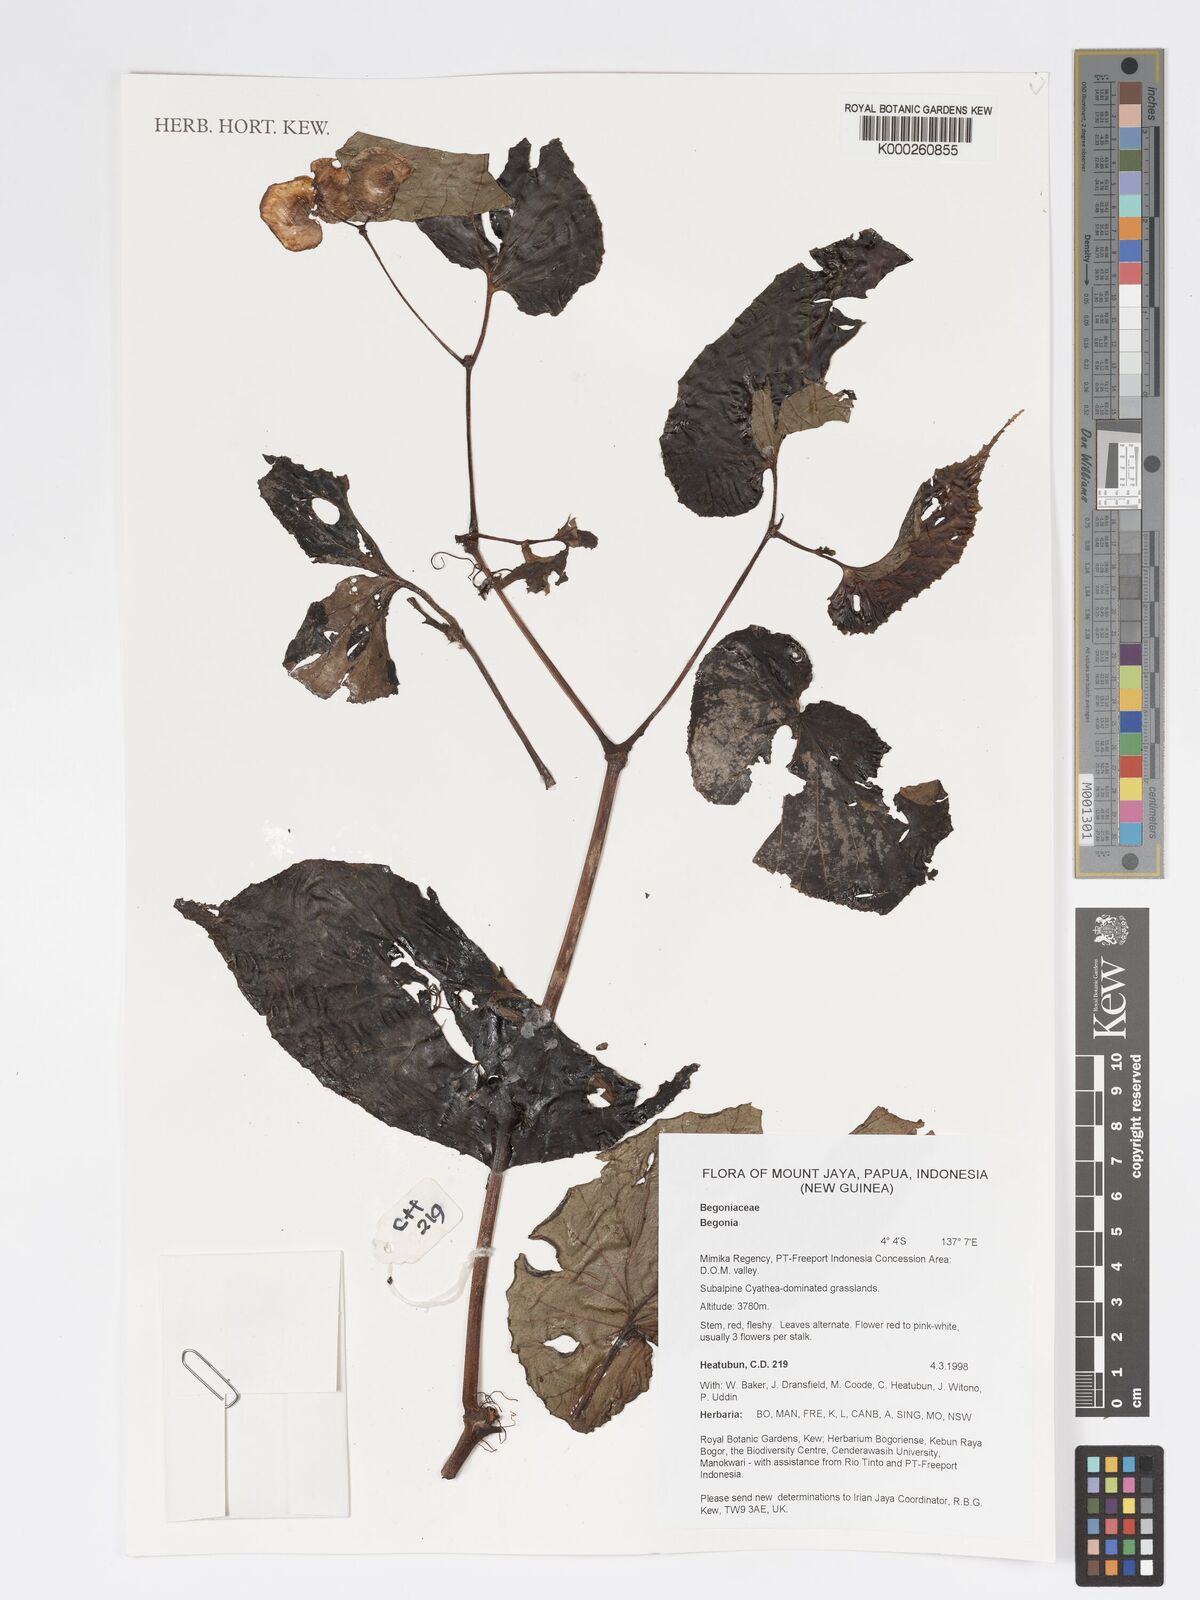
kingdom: Plantae
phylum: Tracheophyta
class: Magnoliopsida
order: Cucurbitales
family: Begoniaceae
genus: Begonia
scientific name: Begonia
